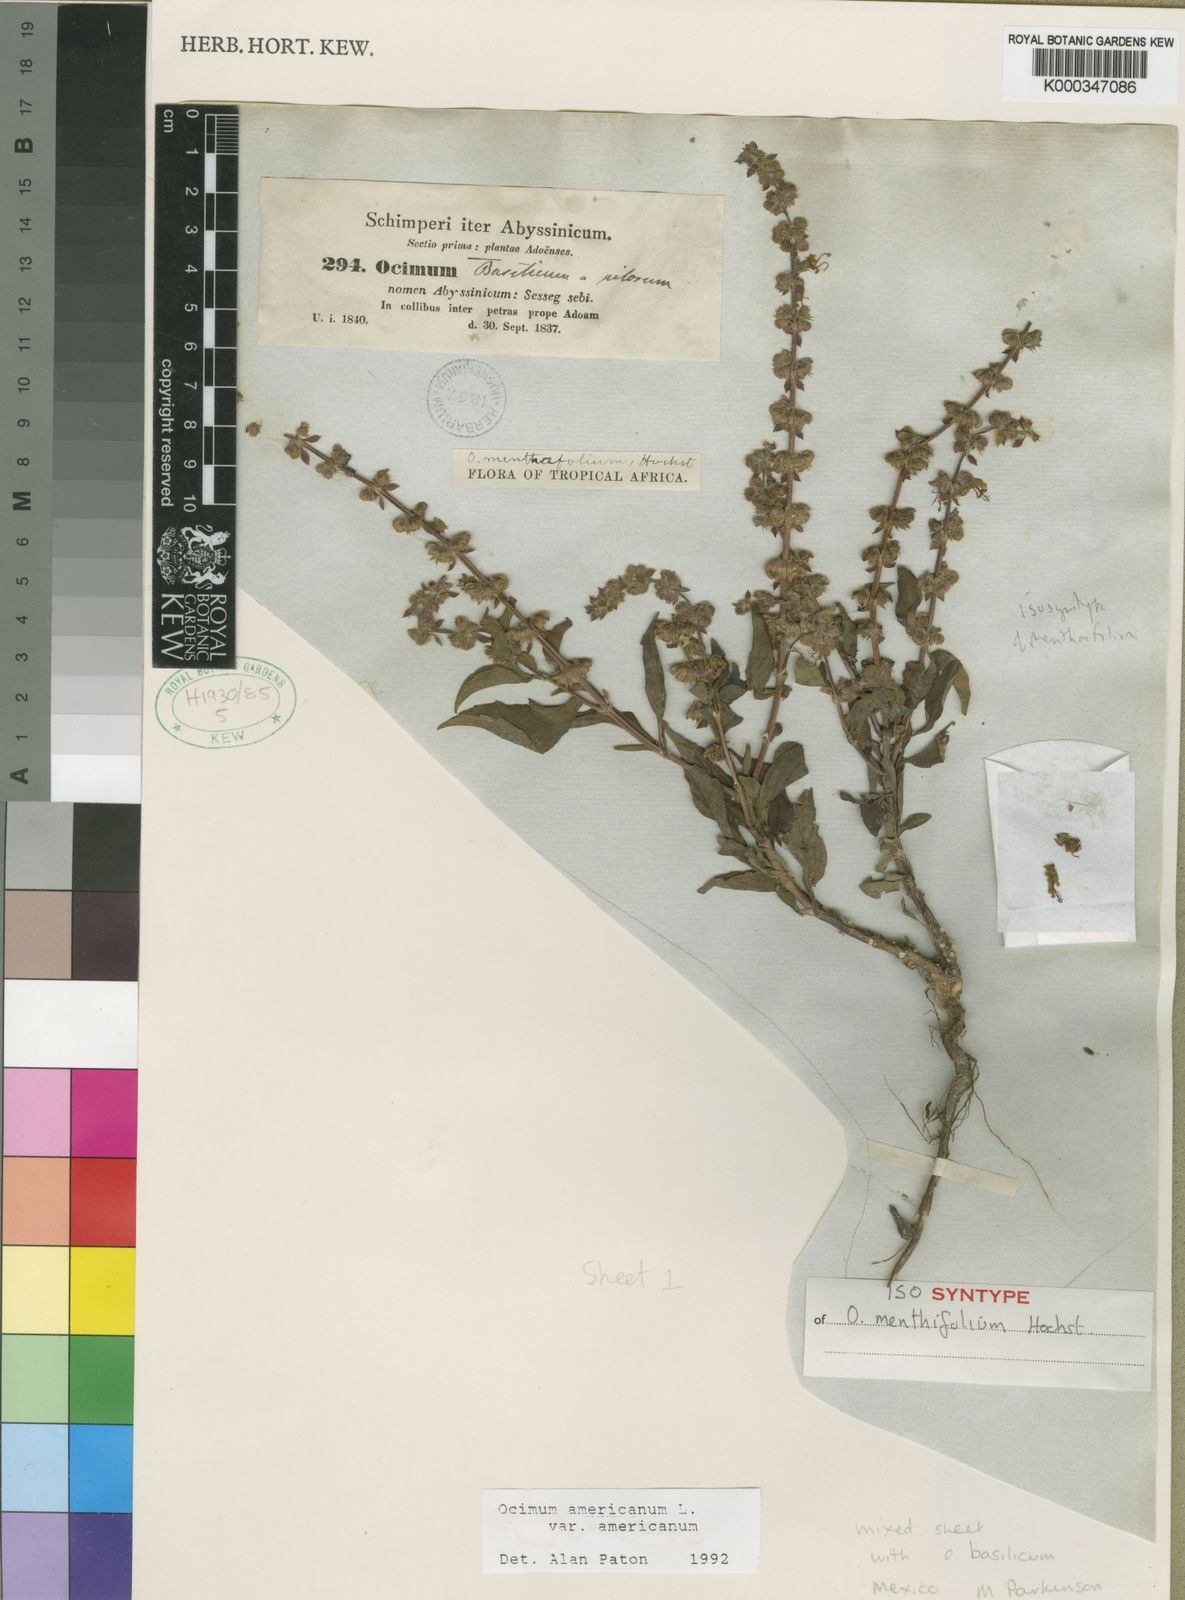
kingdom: Plantae
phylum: Tracheophyta
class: Magnoliopsida
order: Lamiales
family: Lamiaceae
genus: Ocimum
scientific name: Ocimum americanum
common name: American basil
